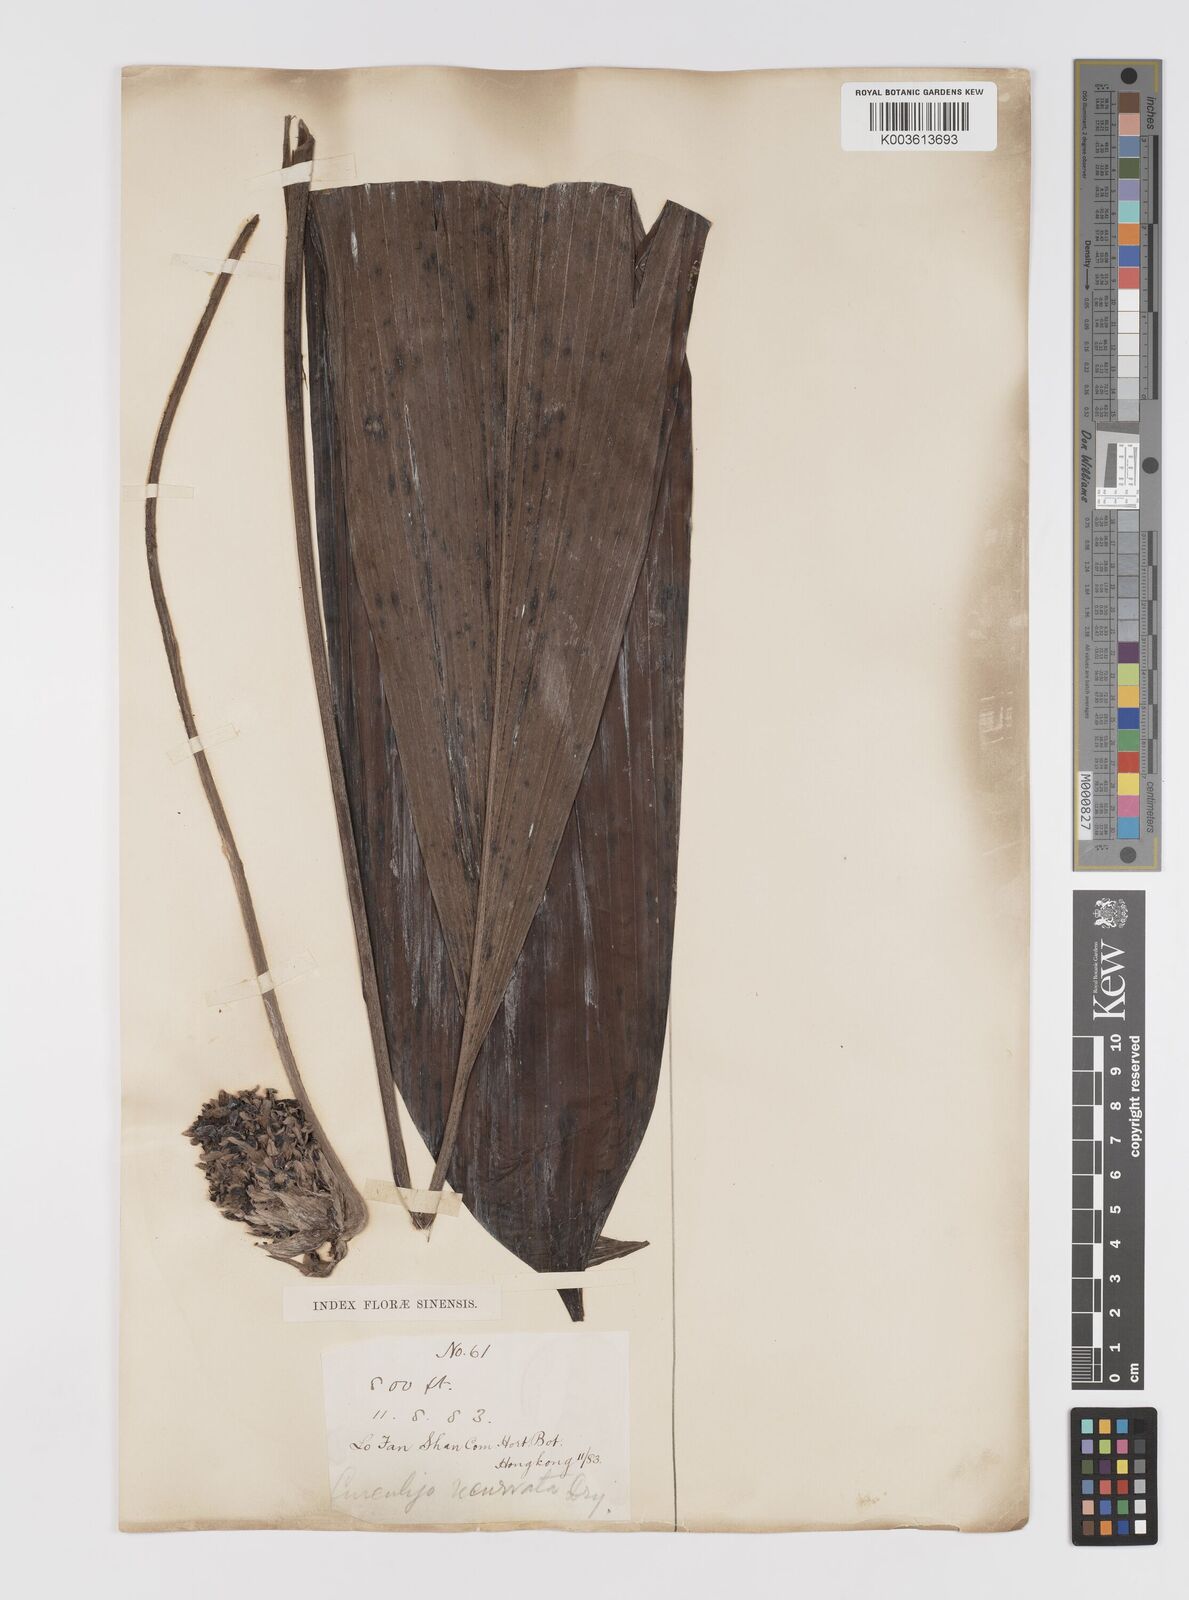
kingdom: Plantae
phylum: Tracheophyta
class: Liliopsida
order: Asparagales
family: Hypoxidaceae
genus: Curculigo
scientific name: Curculigo capitulata
